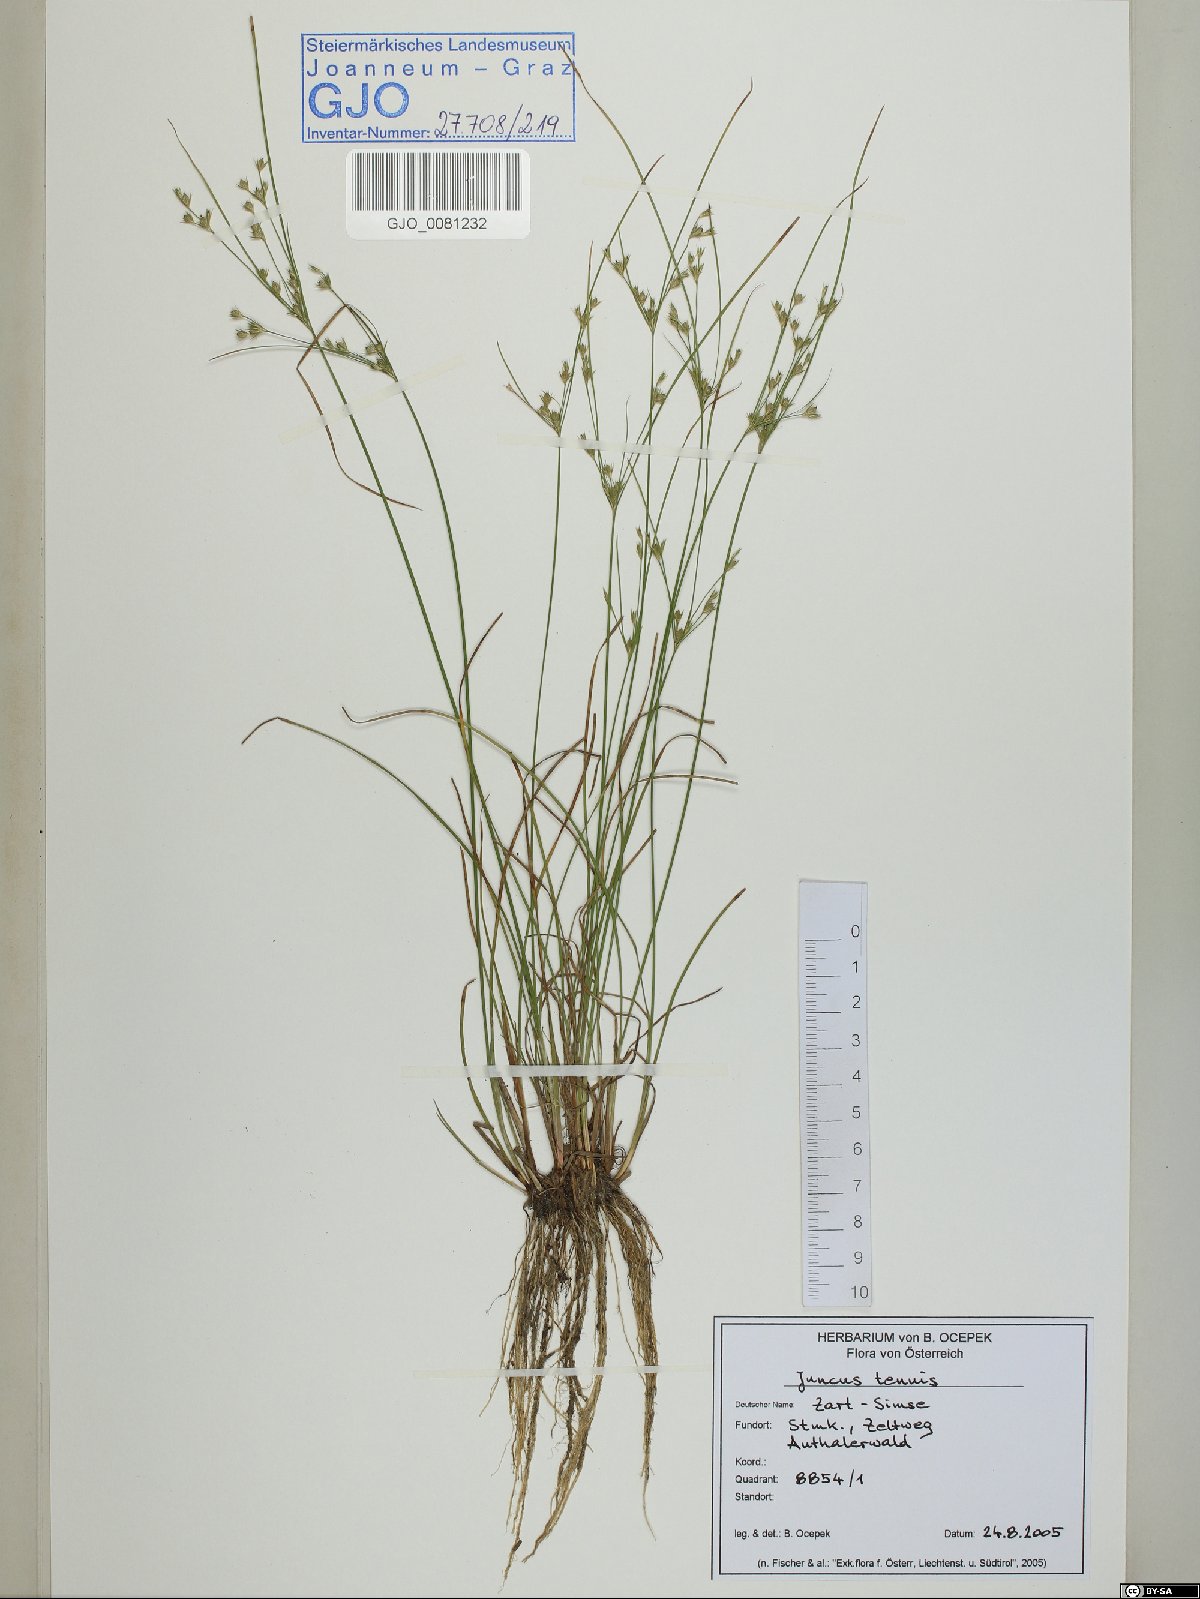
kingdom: Plantae
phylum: Tracheophyta
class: Liliopsida
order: Poales
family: Juncaceae
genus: Juncus
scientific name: Juncus tenuis
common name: Slender rush
